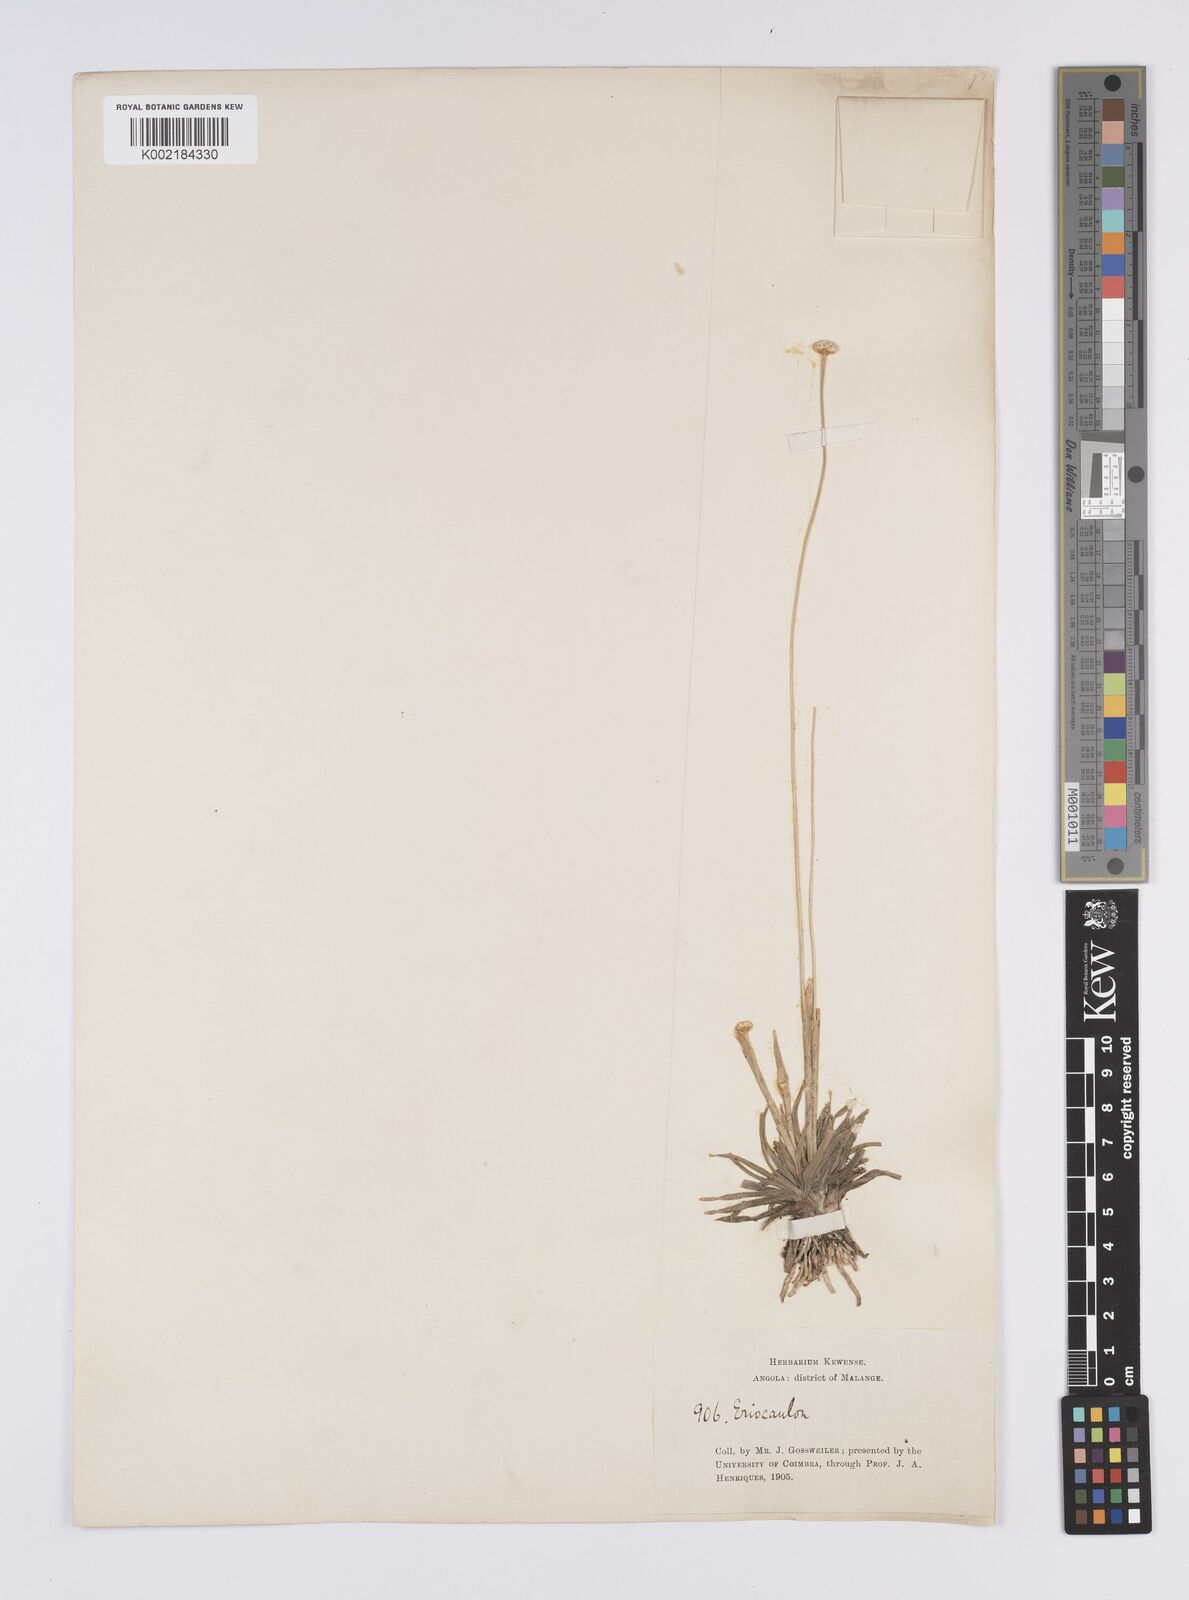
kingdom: Plantae
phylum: Tracheophyta
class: Liliopsida
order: Poales
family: Eriocaulaceae
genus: Eriocaulon
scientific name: Eriocaulon teusczii
